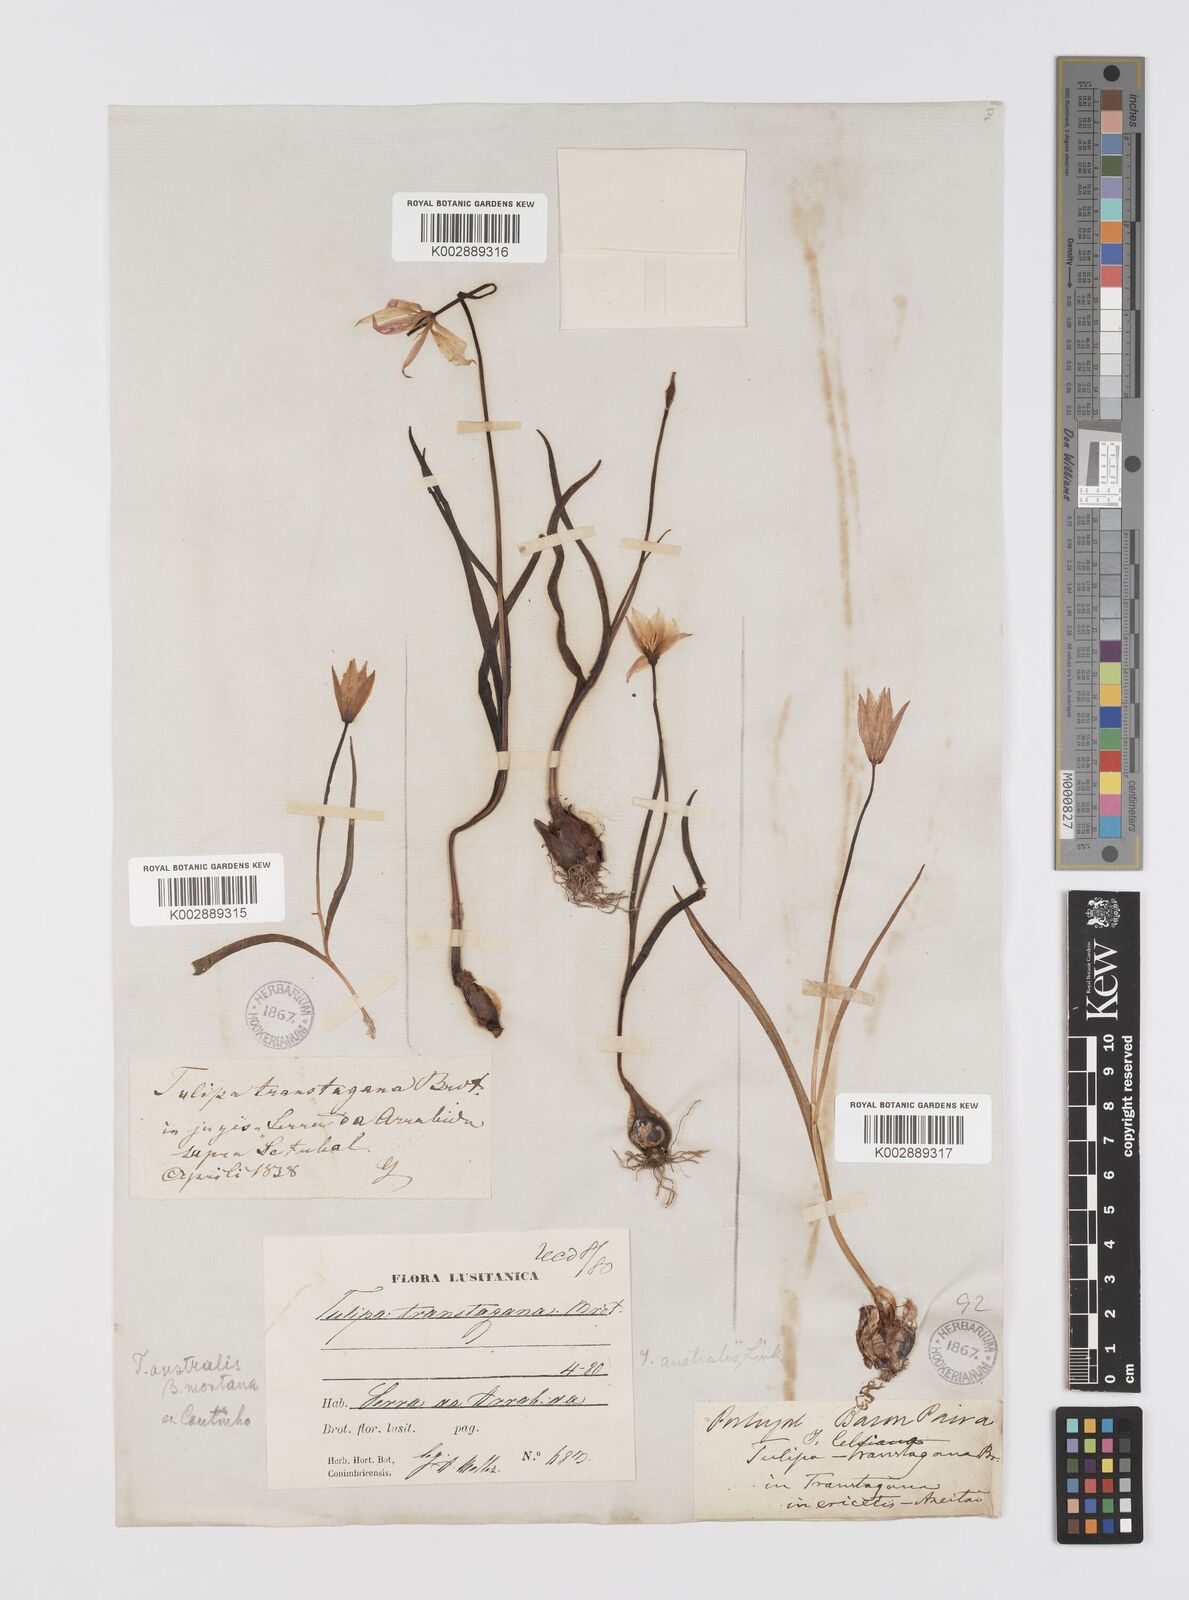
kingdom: Plantae
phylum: Tracheophyta
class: Liliopsida
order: Liliales
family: Liliaceae
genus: Tulipa
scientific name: Tulipa sylvestris
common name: Wild tulip
